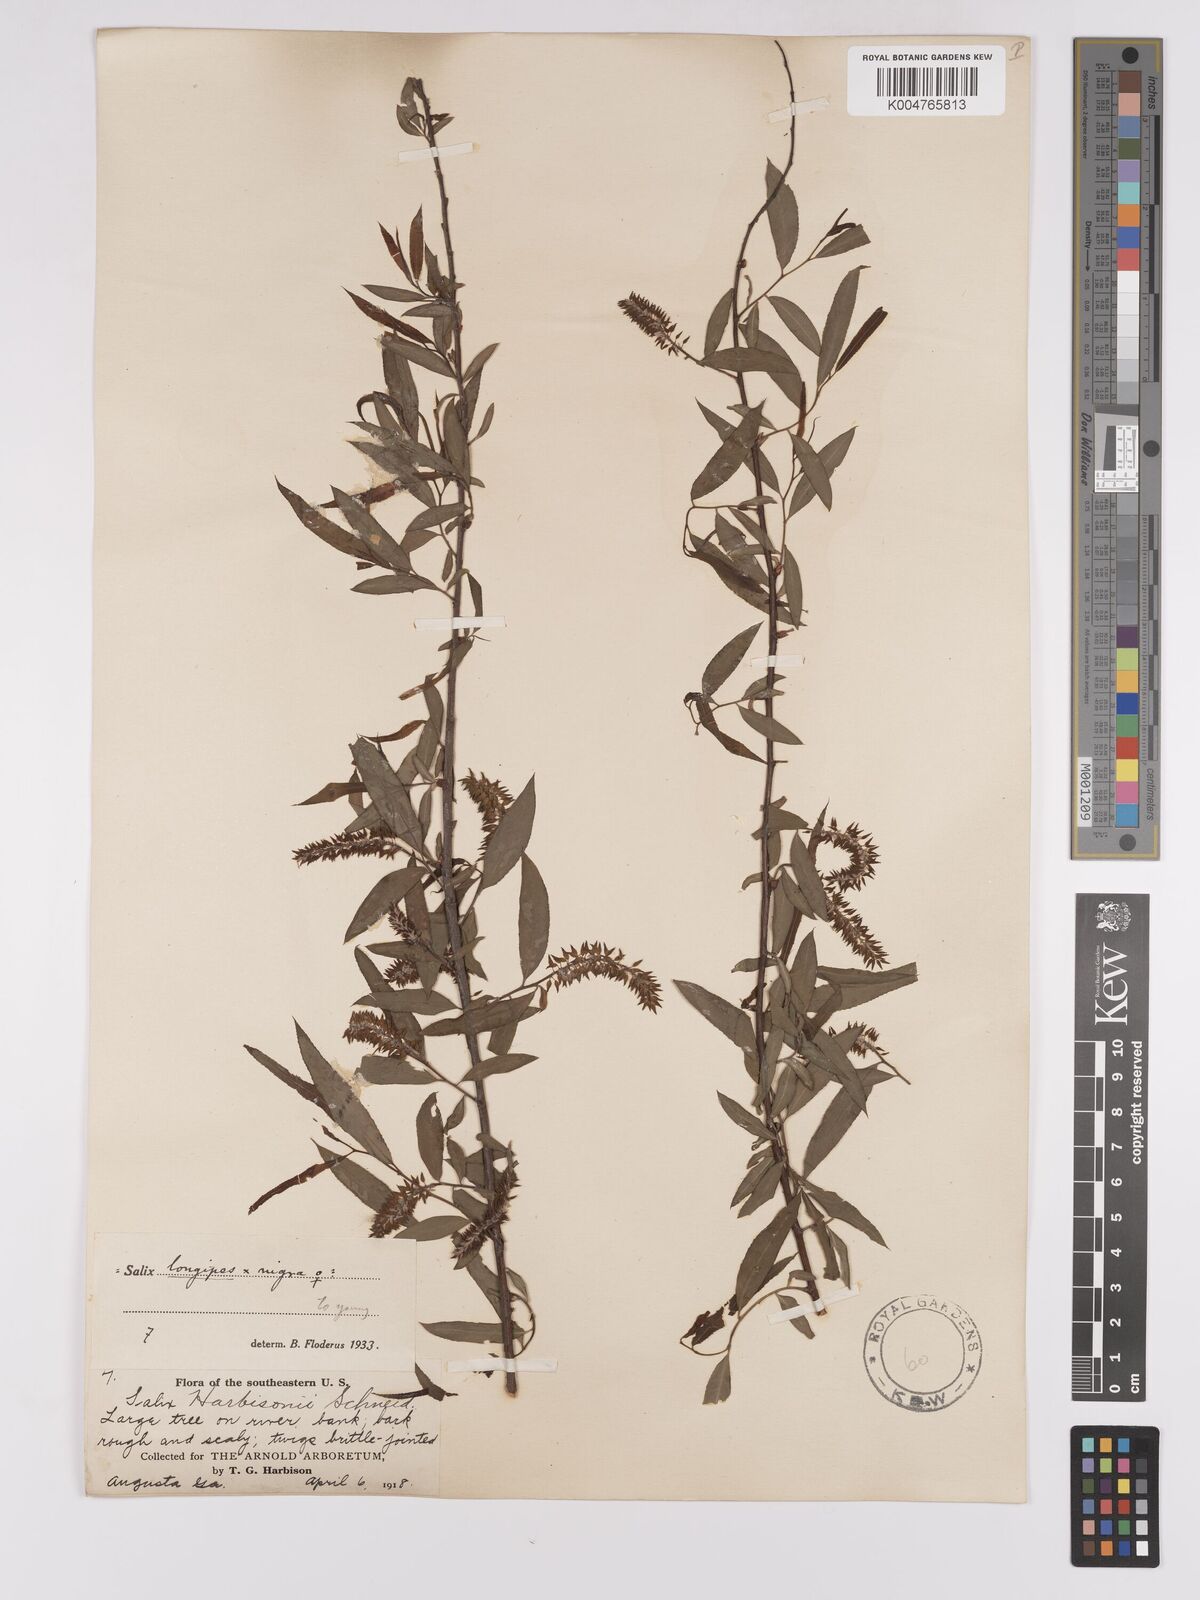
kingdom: Plantae
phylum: Tracheophyta
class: Magnoliopsida
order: Malpighiales
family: Salicaceae
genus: Salix
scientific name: Salix fruticulosa
